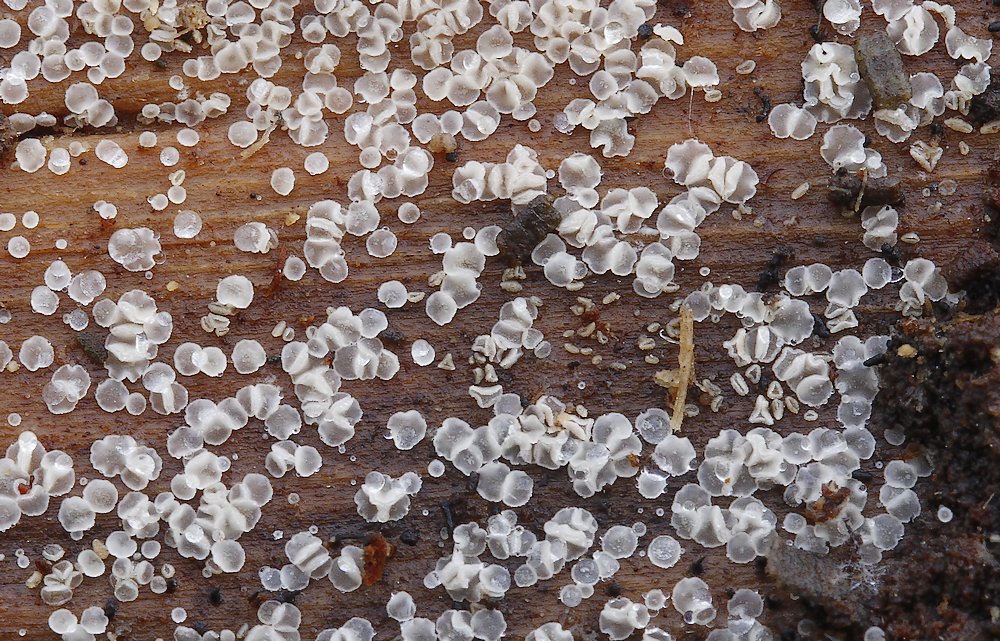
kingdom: Fungi
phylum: Ascomycota
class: Leotiomycetes
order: Helotiales
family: Hyaloscyphaceae
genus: Eupezizella
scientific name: Eupezizella aureliella
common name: almindelig klarskive
